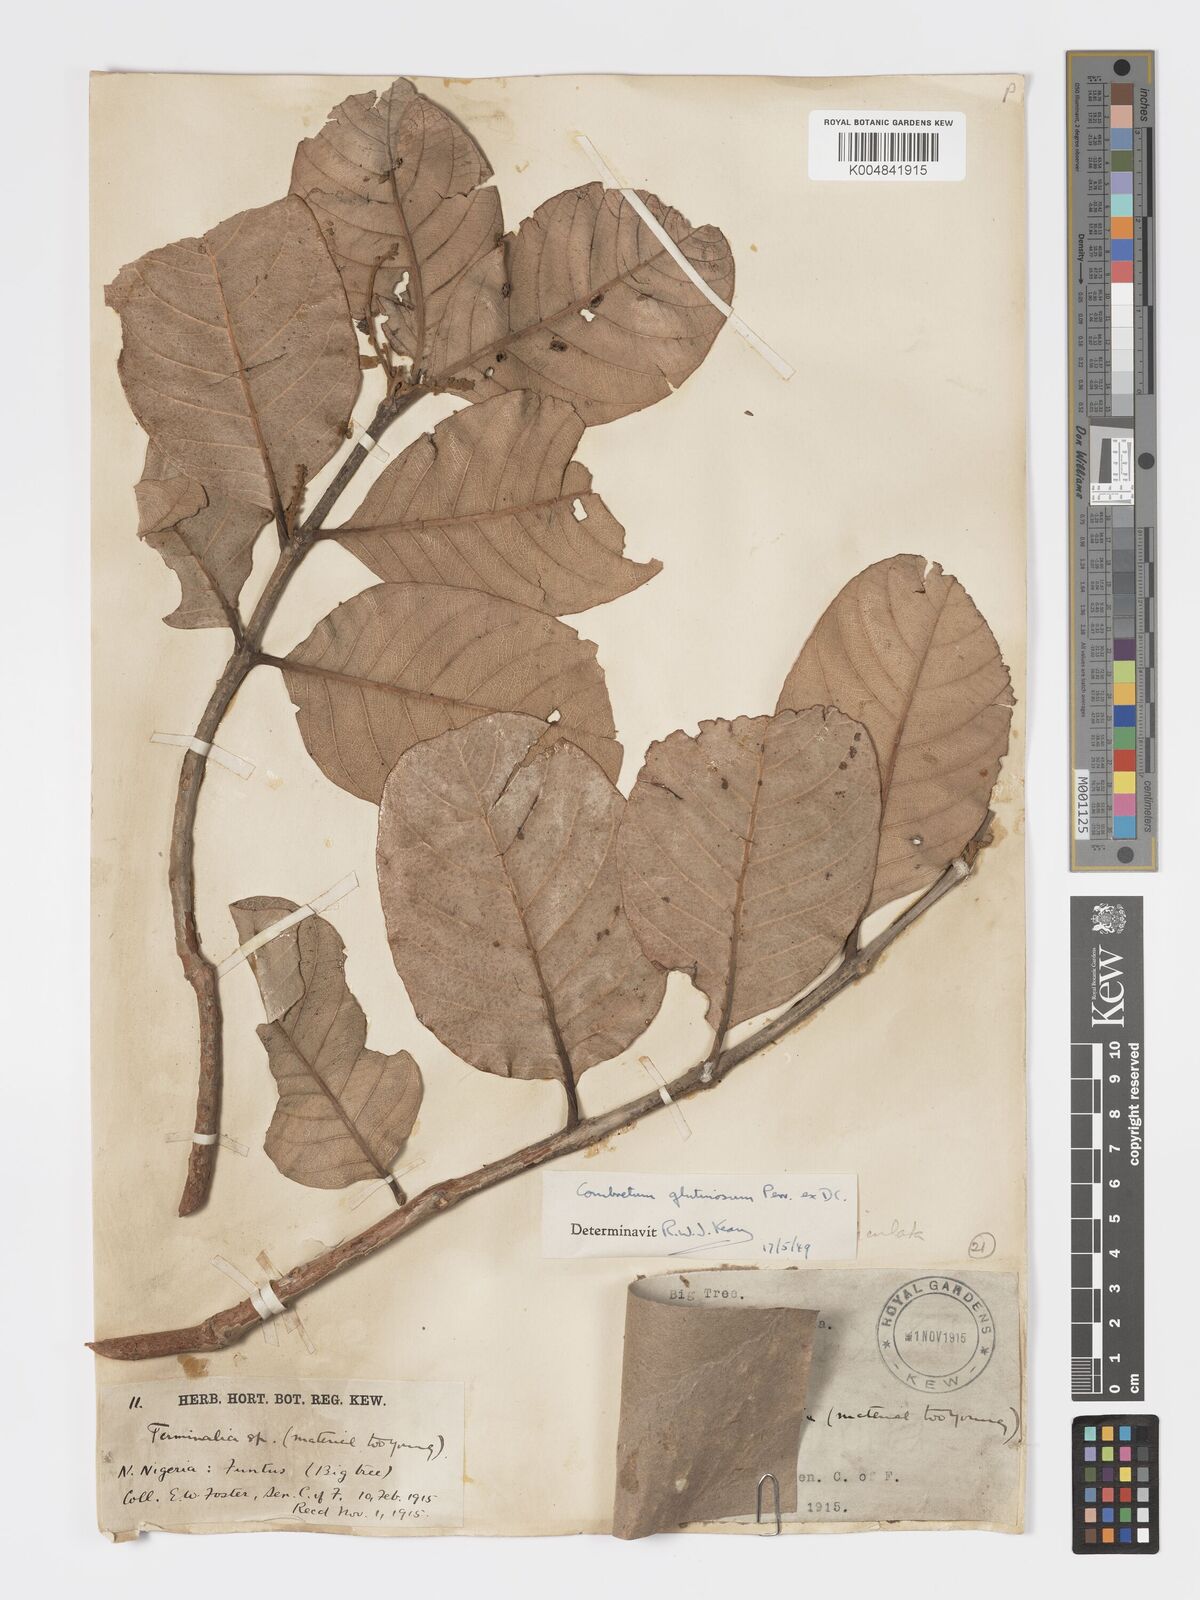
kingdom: Plantae
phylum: Tracheophyta
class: Magnoliopsida
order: Myrtales
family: Combretaceae
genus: Combretum
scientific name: Combretum
